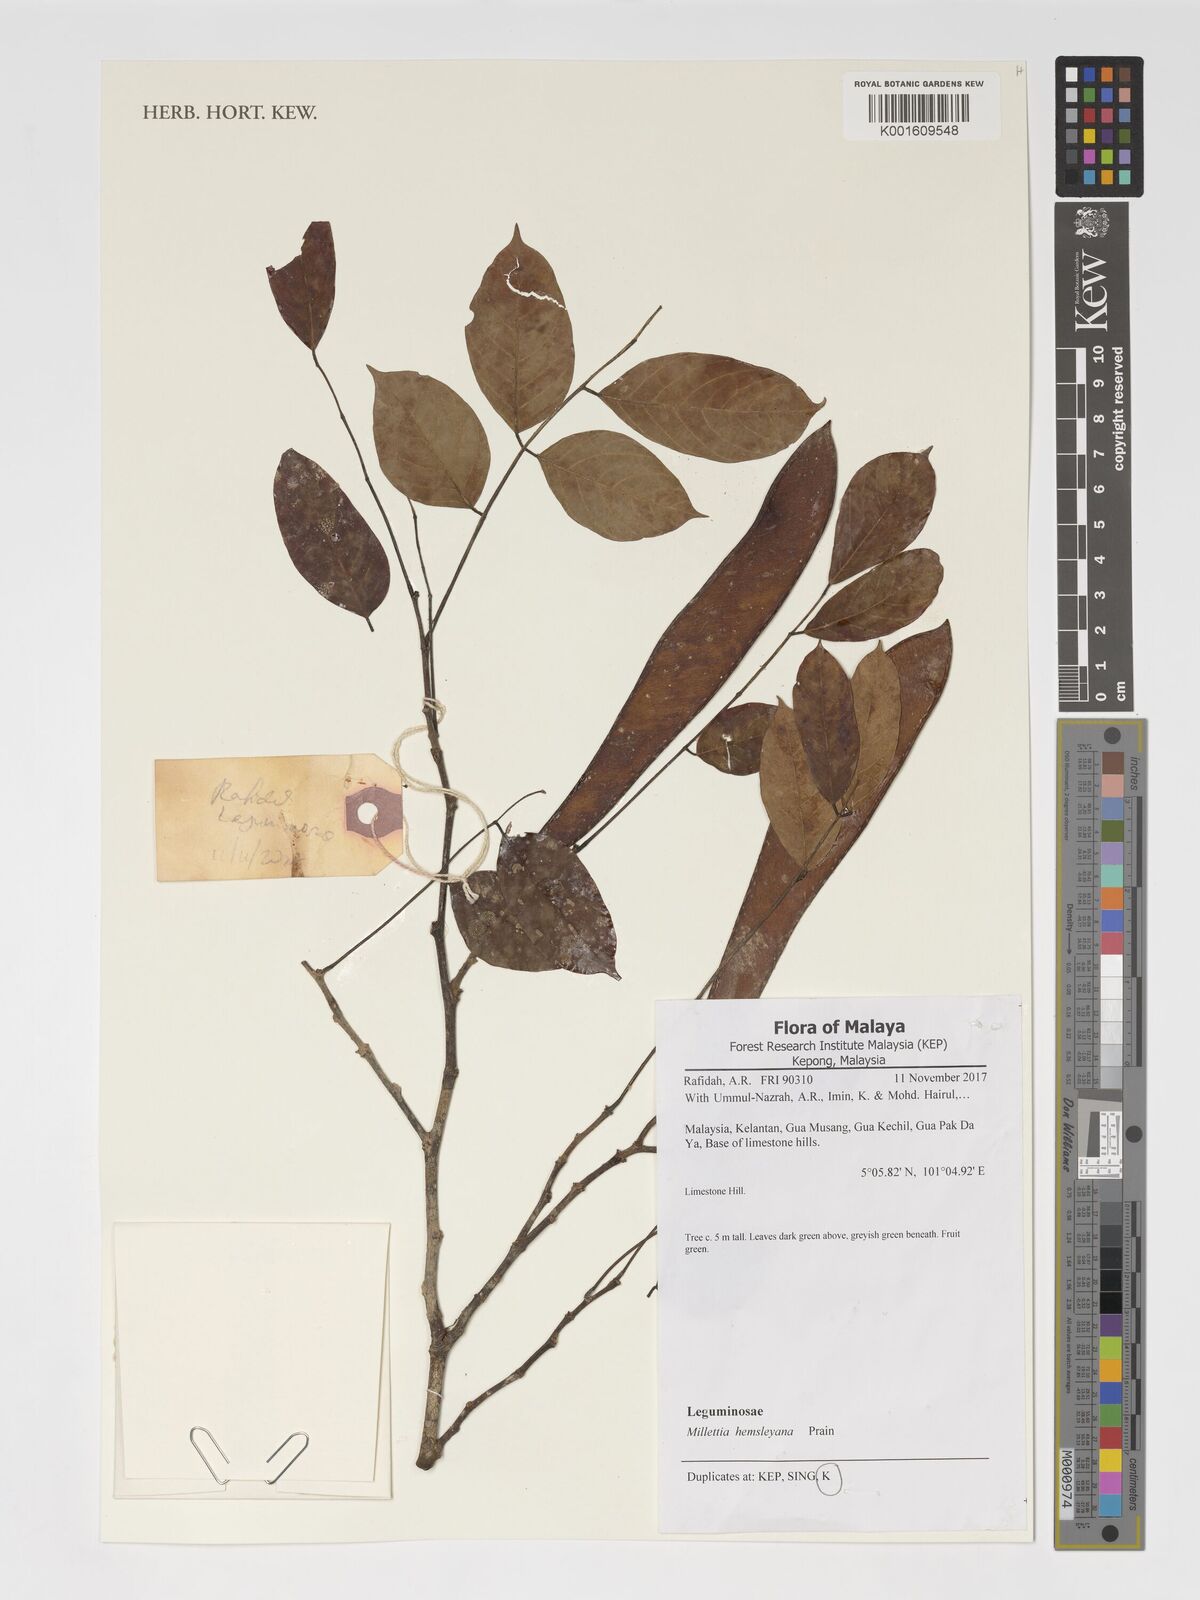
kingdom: Plantae
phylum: Tracheophyta
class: Magnoliopsida
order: Fabales
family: Fabaceae
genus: Millettia
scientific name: Millettia xylocarpa
